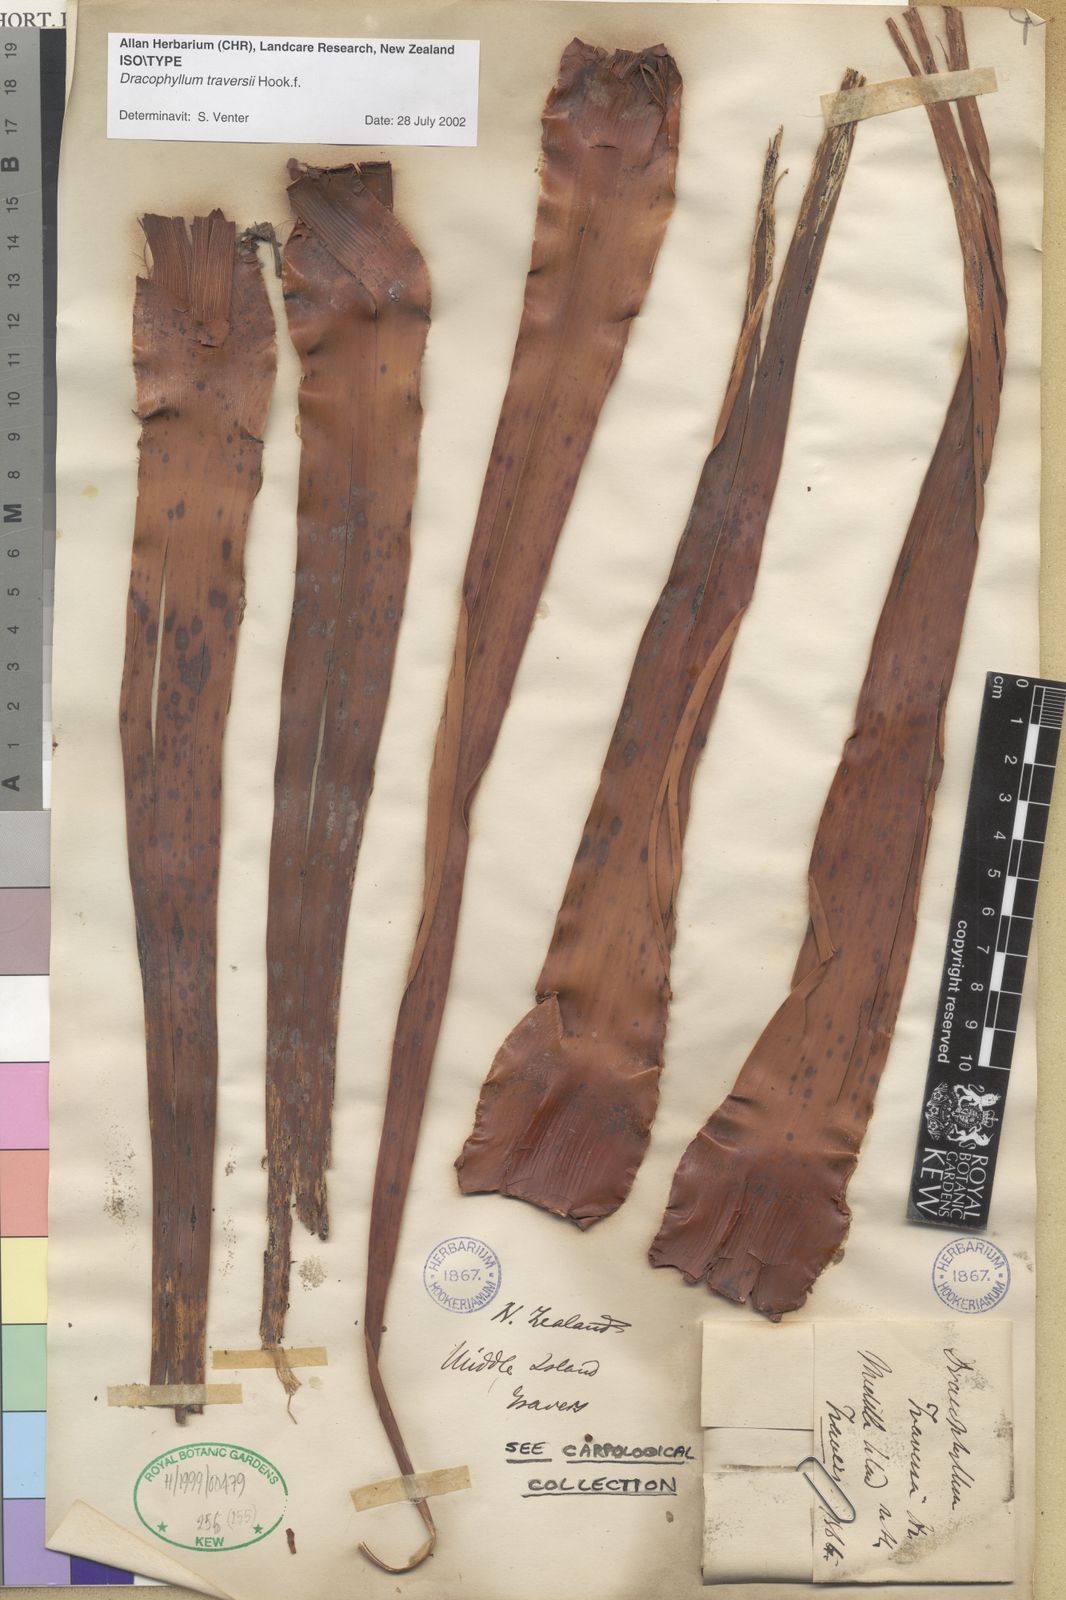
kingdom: Plantae
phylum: Tracheophyta
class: Magnoliopsida
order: Ericales
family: Ericaceae
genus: Dracophyllum
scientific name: Dracophyllum traversii
